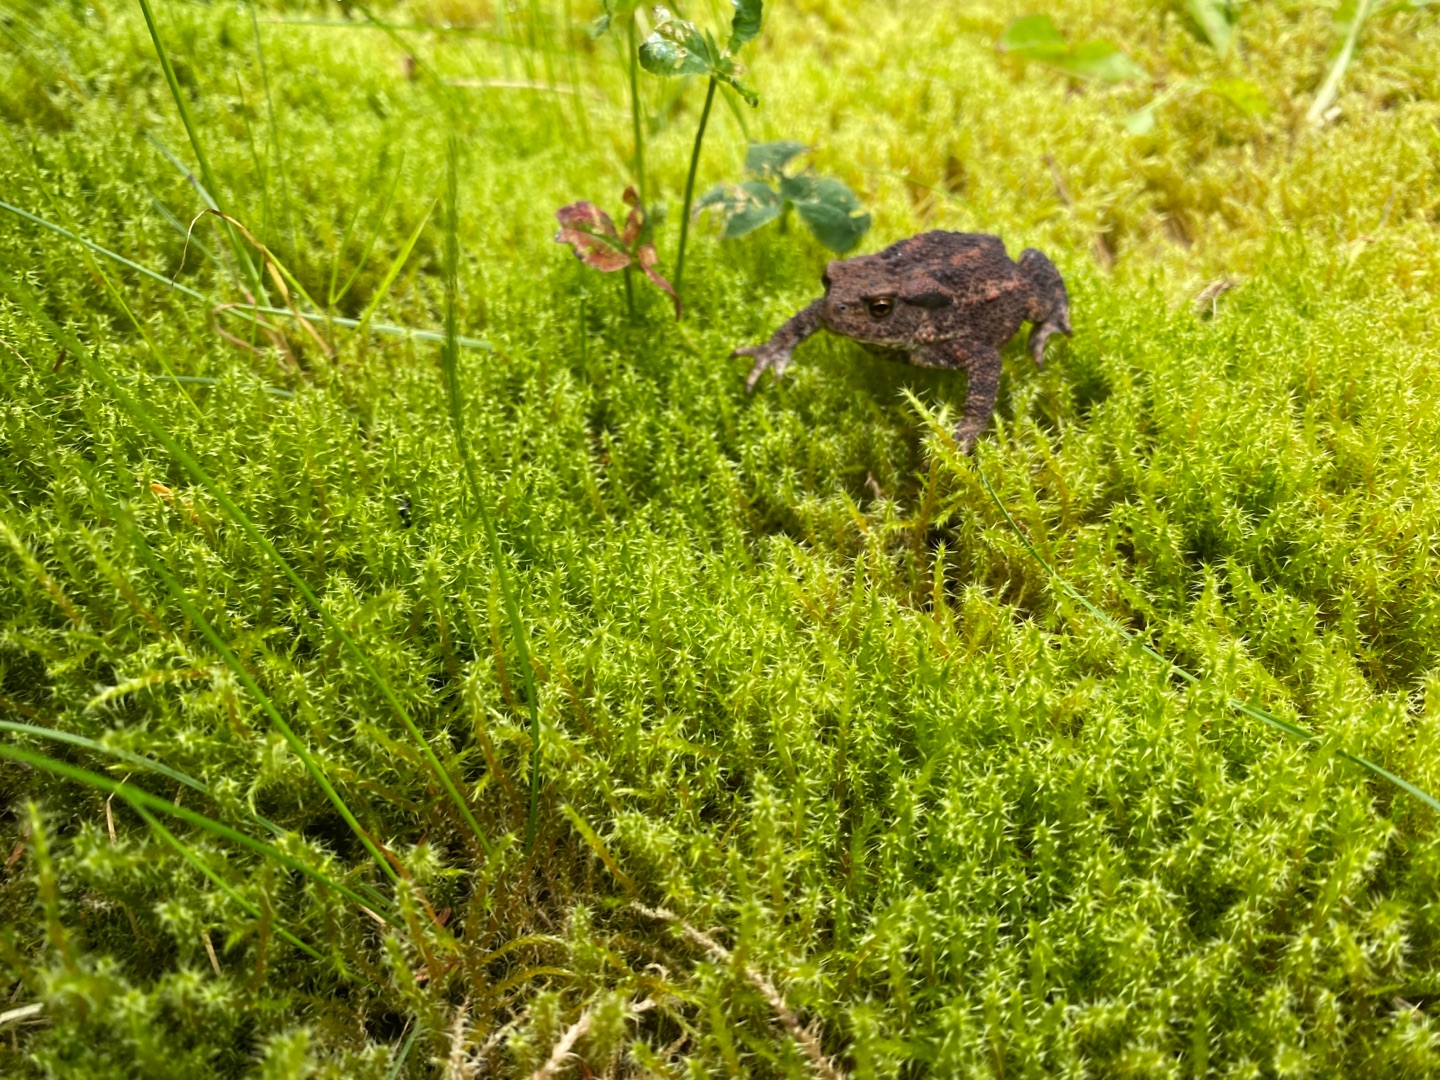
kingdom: Animalia
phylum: Chordata
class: Amphibia
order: Anura
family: Bufonidae
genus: Bufo
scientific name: Bufo bufo
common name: Skrubtudse
